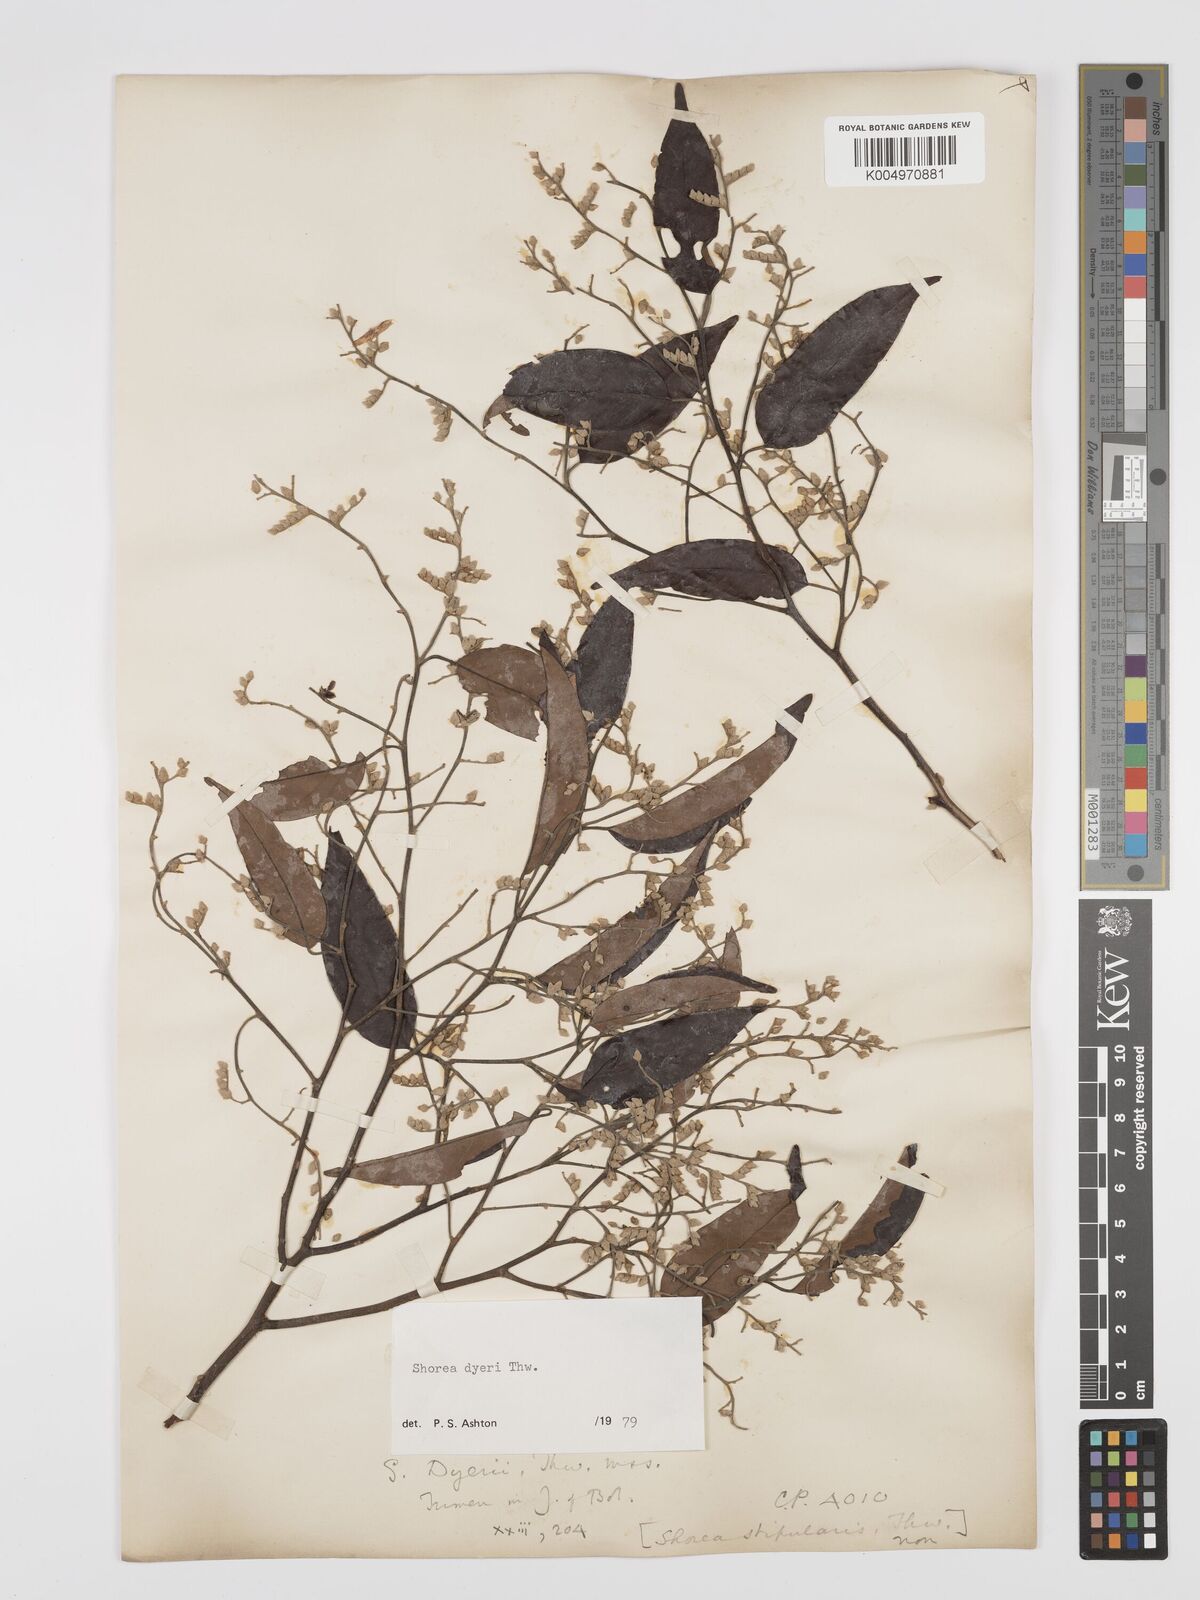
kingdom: Plantae
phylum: Tracheophyta
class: Magnoliopsida
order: Malvales
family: Dipterocarpaceae
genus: Shorea
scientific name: Shorea dyeri
